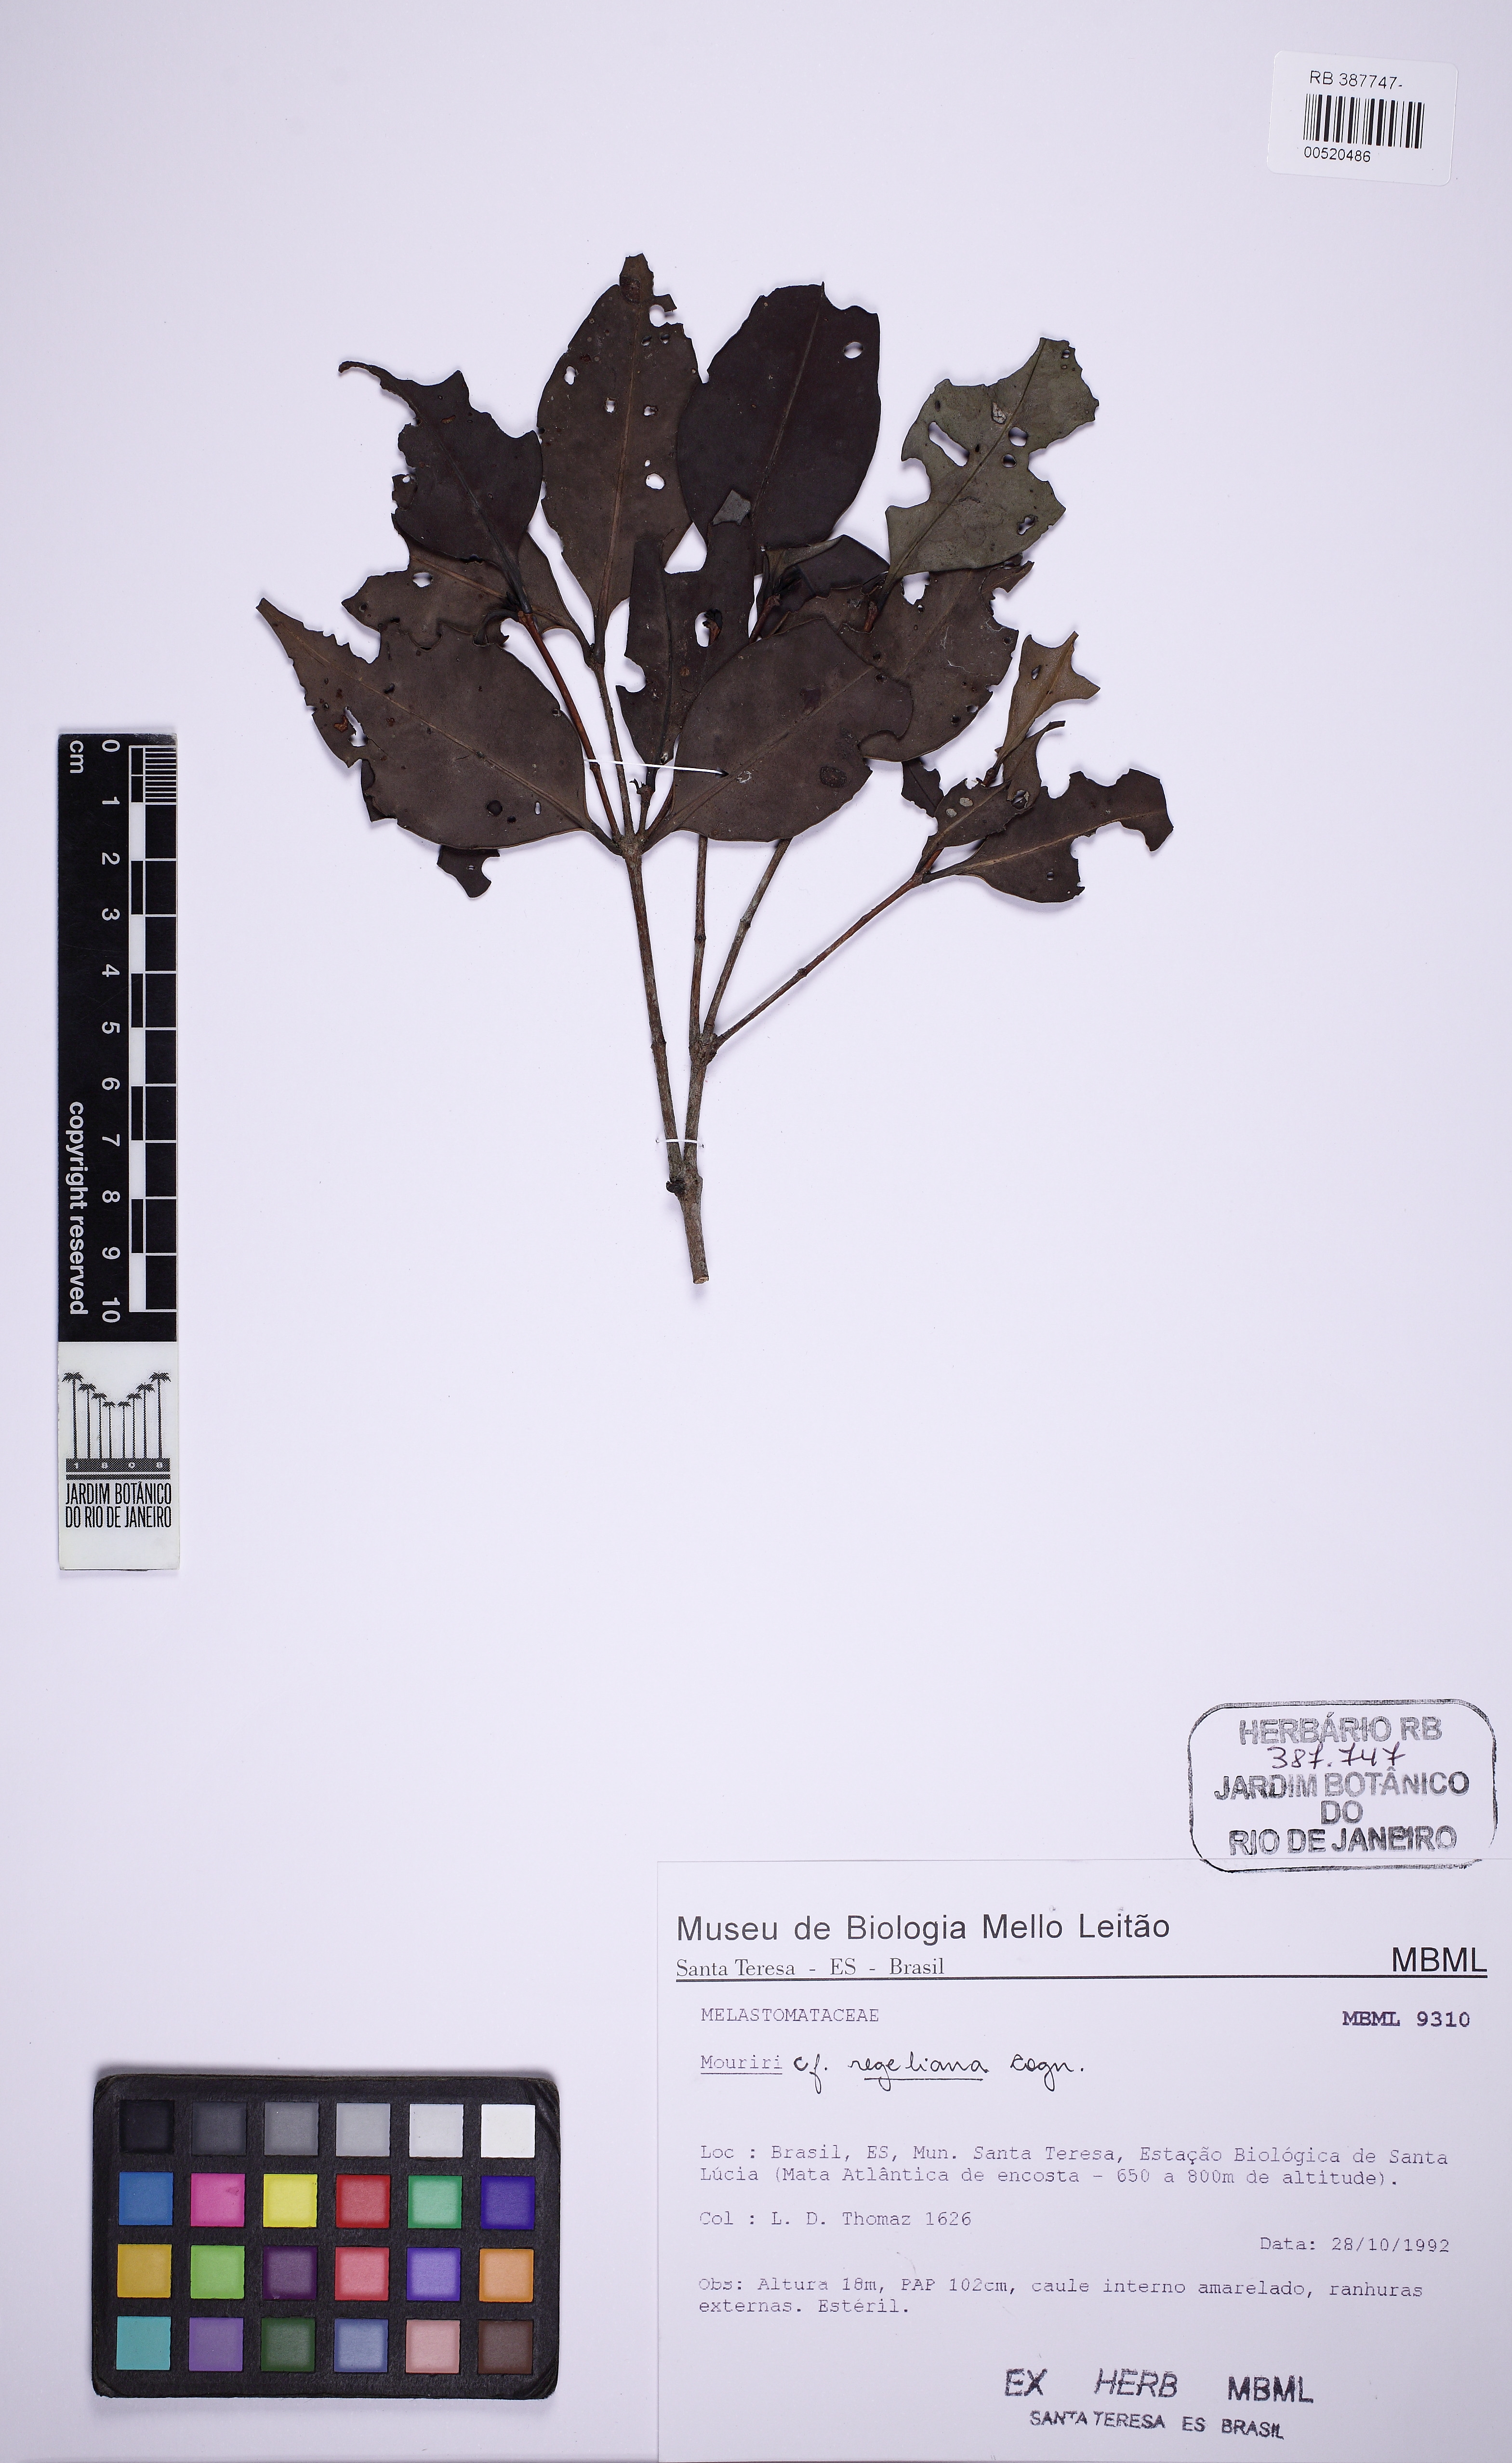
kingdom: Plantae
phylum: Tracheophyta
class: Magnoliopsida
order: Myrtales
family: Melastomataceae
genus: Mouriri
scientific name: Mouriri doriana
